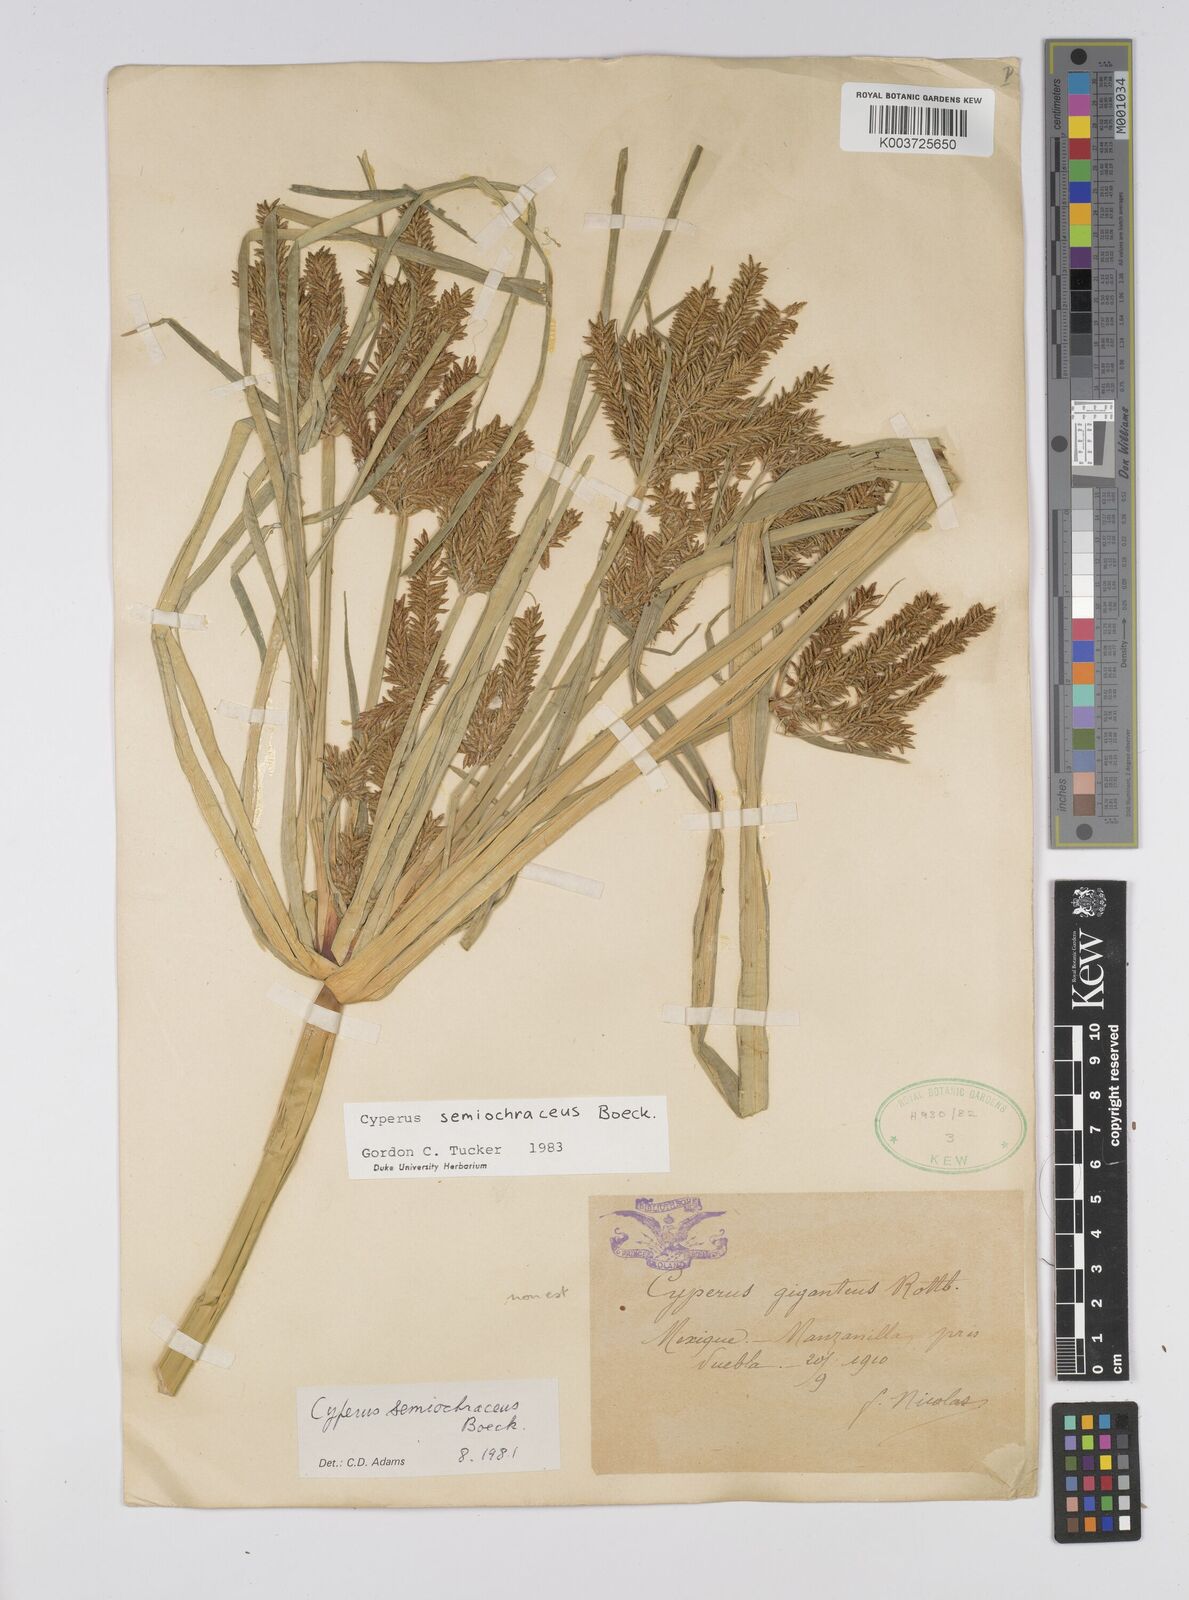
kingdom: Plantae
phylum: Tracheophyta
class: Liliopsida
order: Poales
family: Cyperaceae
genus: Cyperus
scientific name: Cyperus semiochraceus
